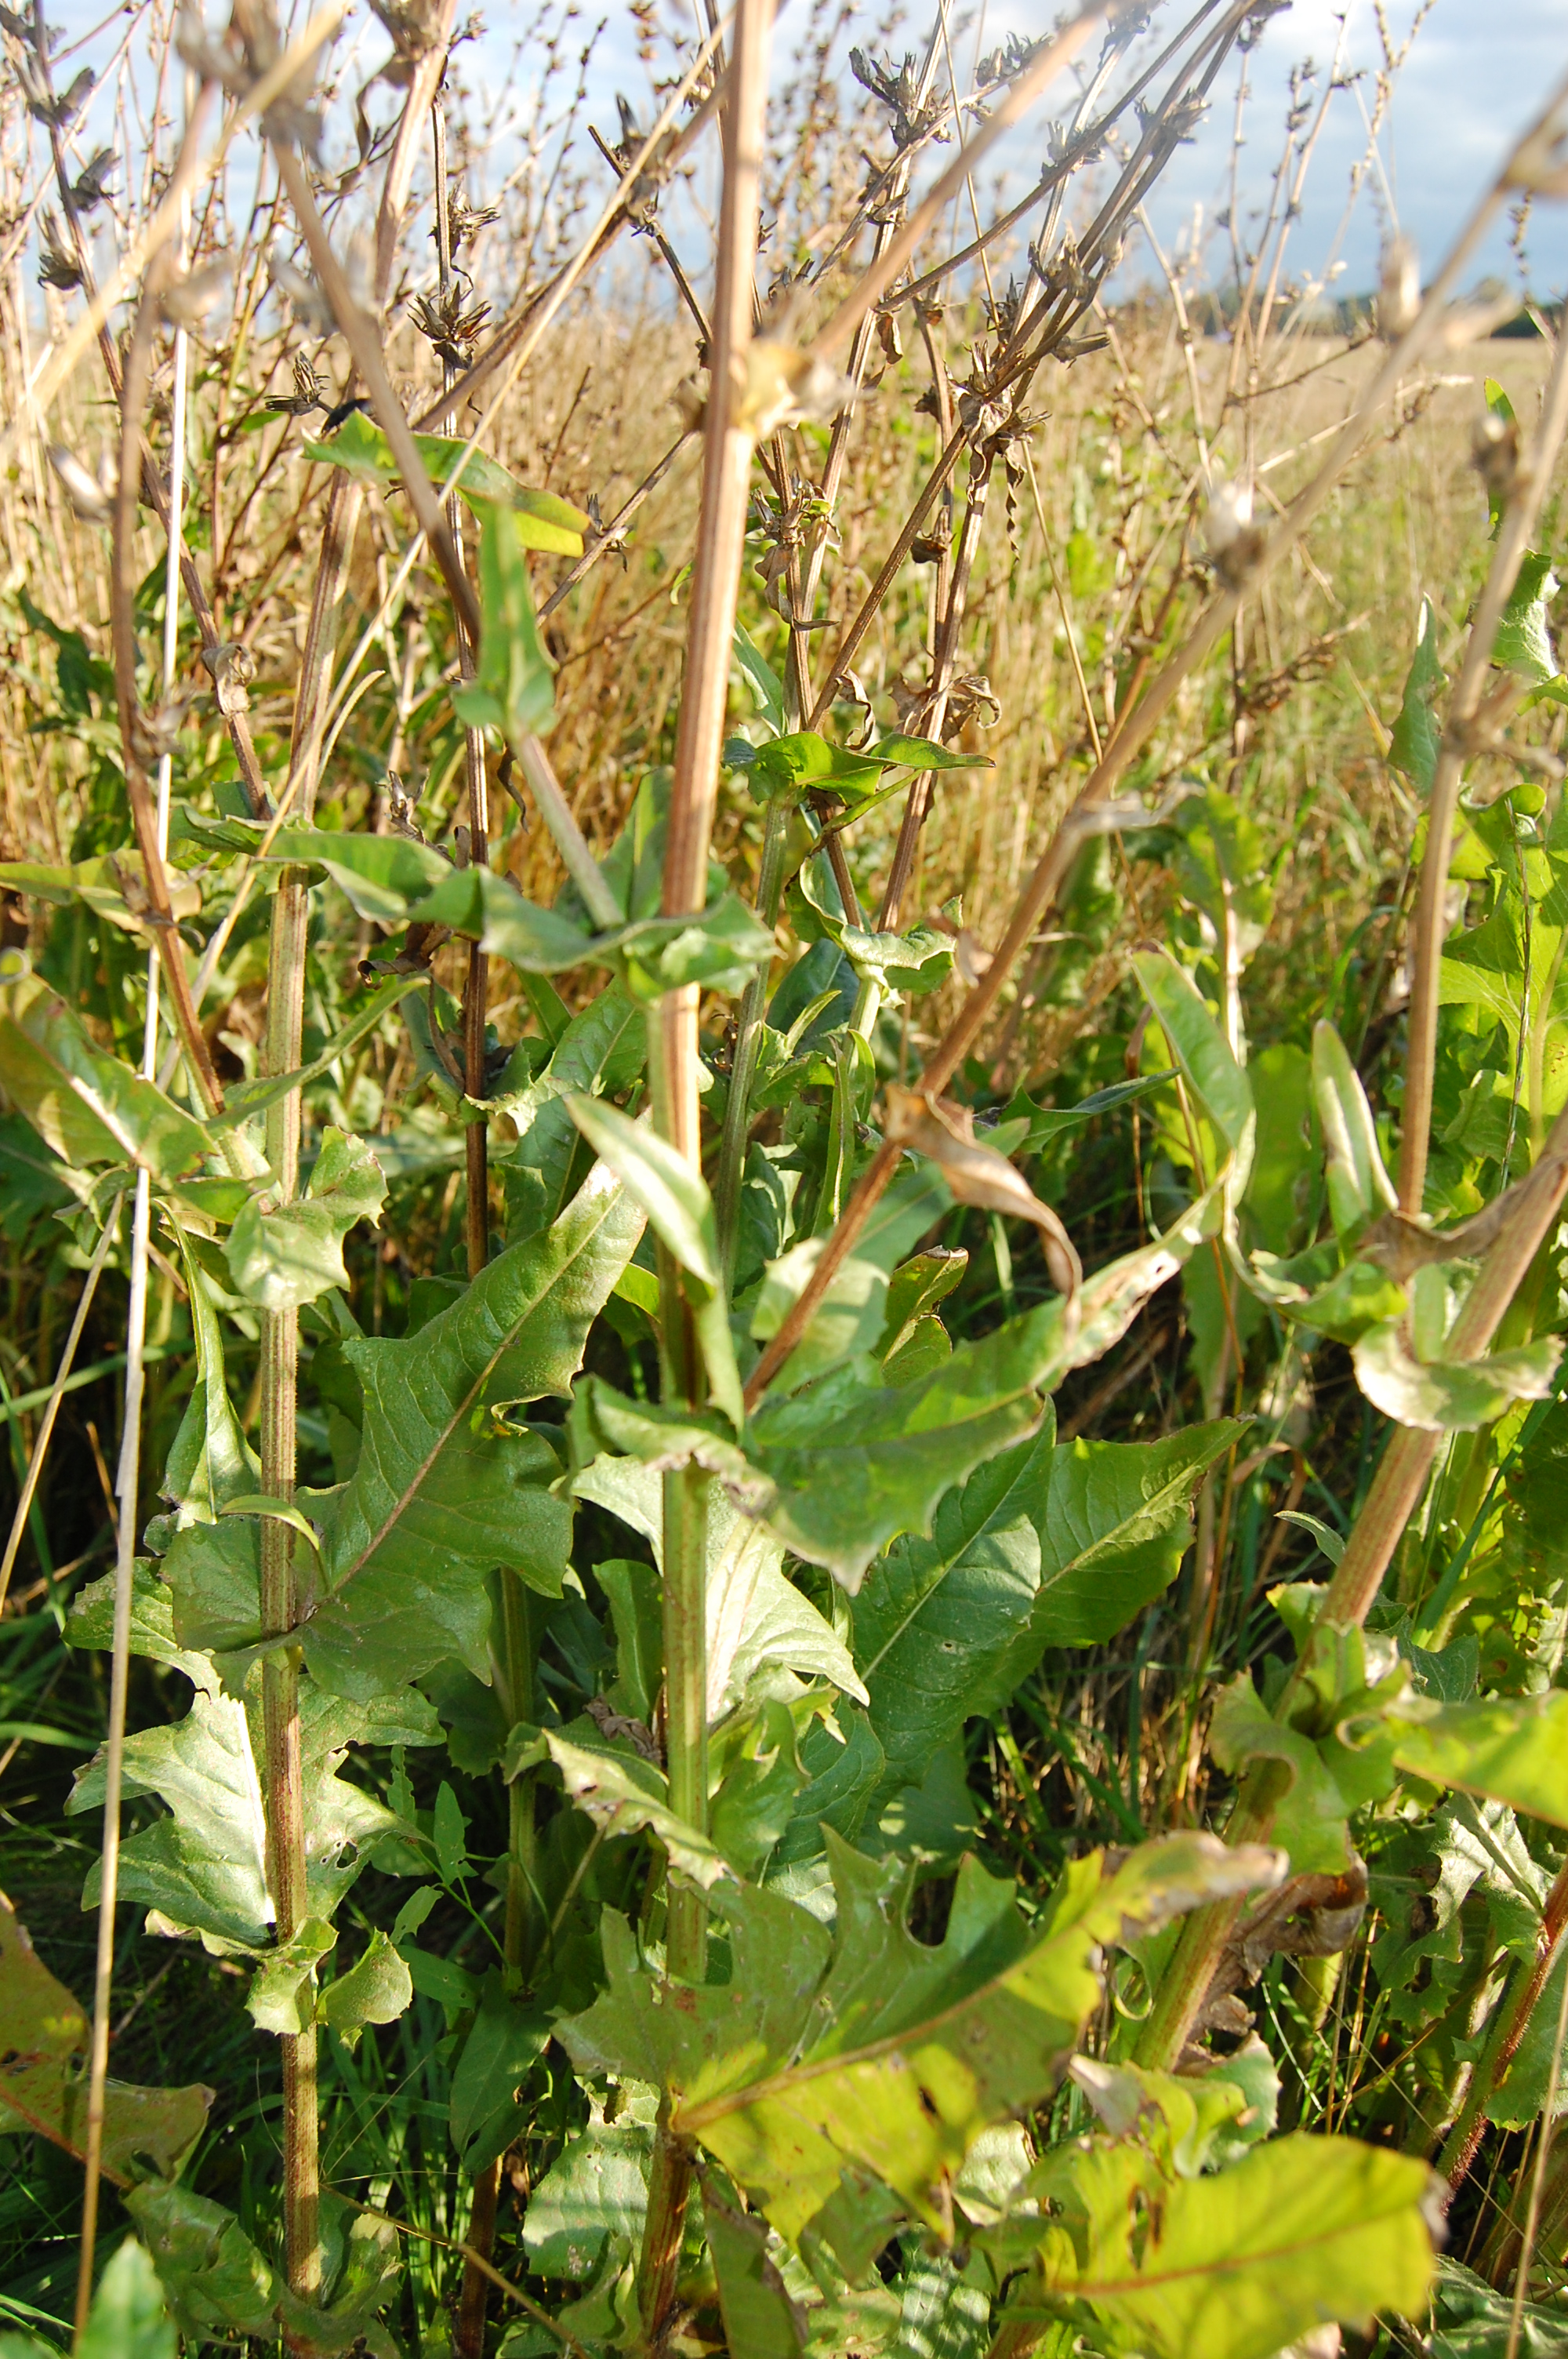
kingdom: Plantae
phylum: Tracheophyta
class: Magnoliopsida
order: Asterales
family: Asteraceae
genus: Cichorium
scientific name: Cichorium intybus
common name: Chicory
